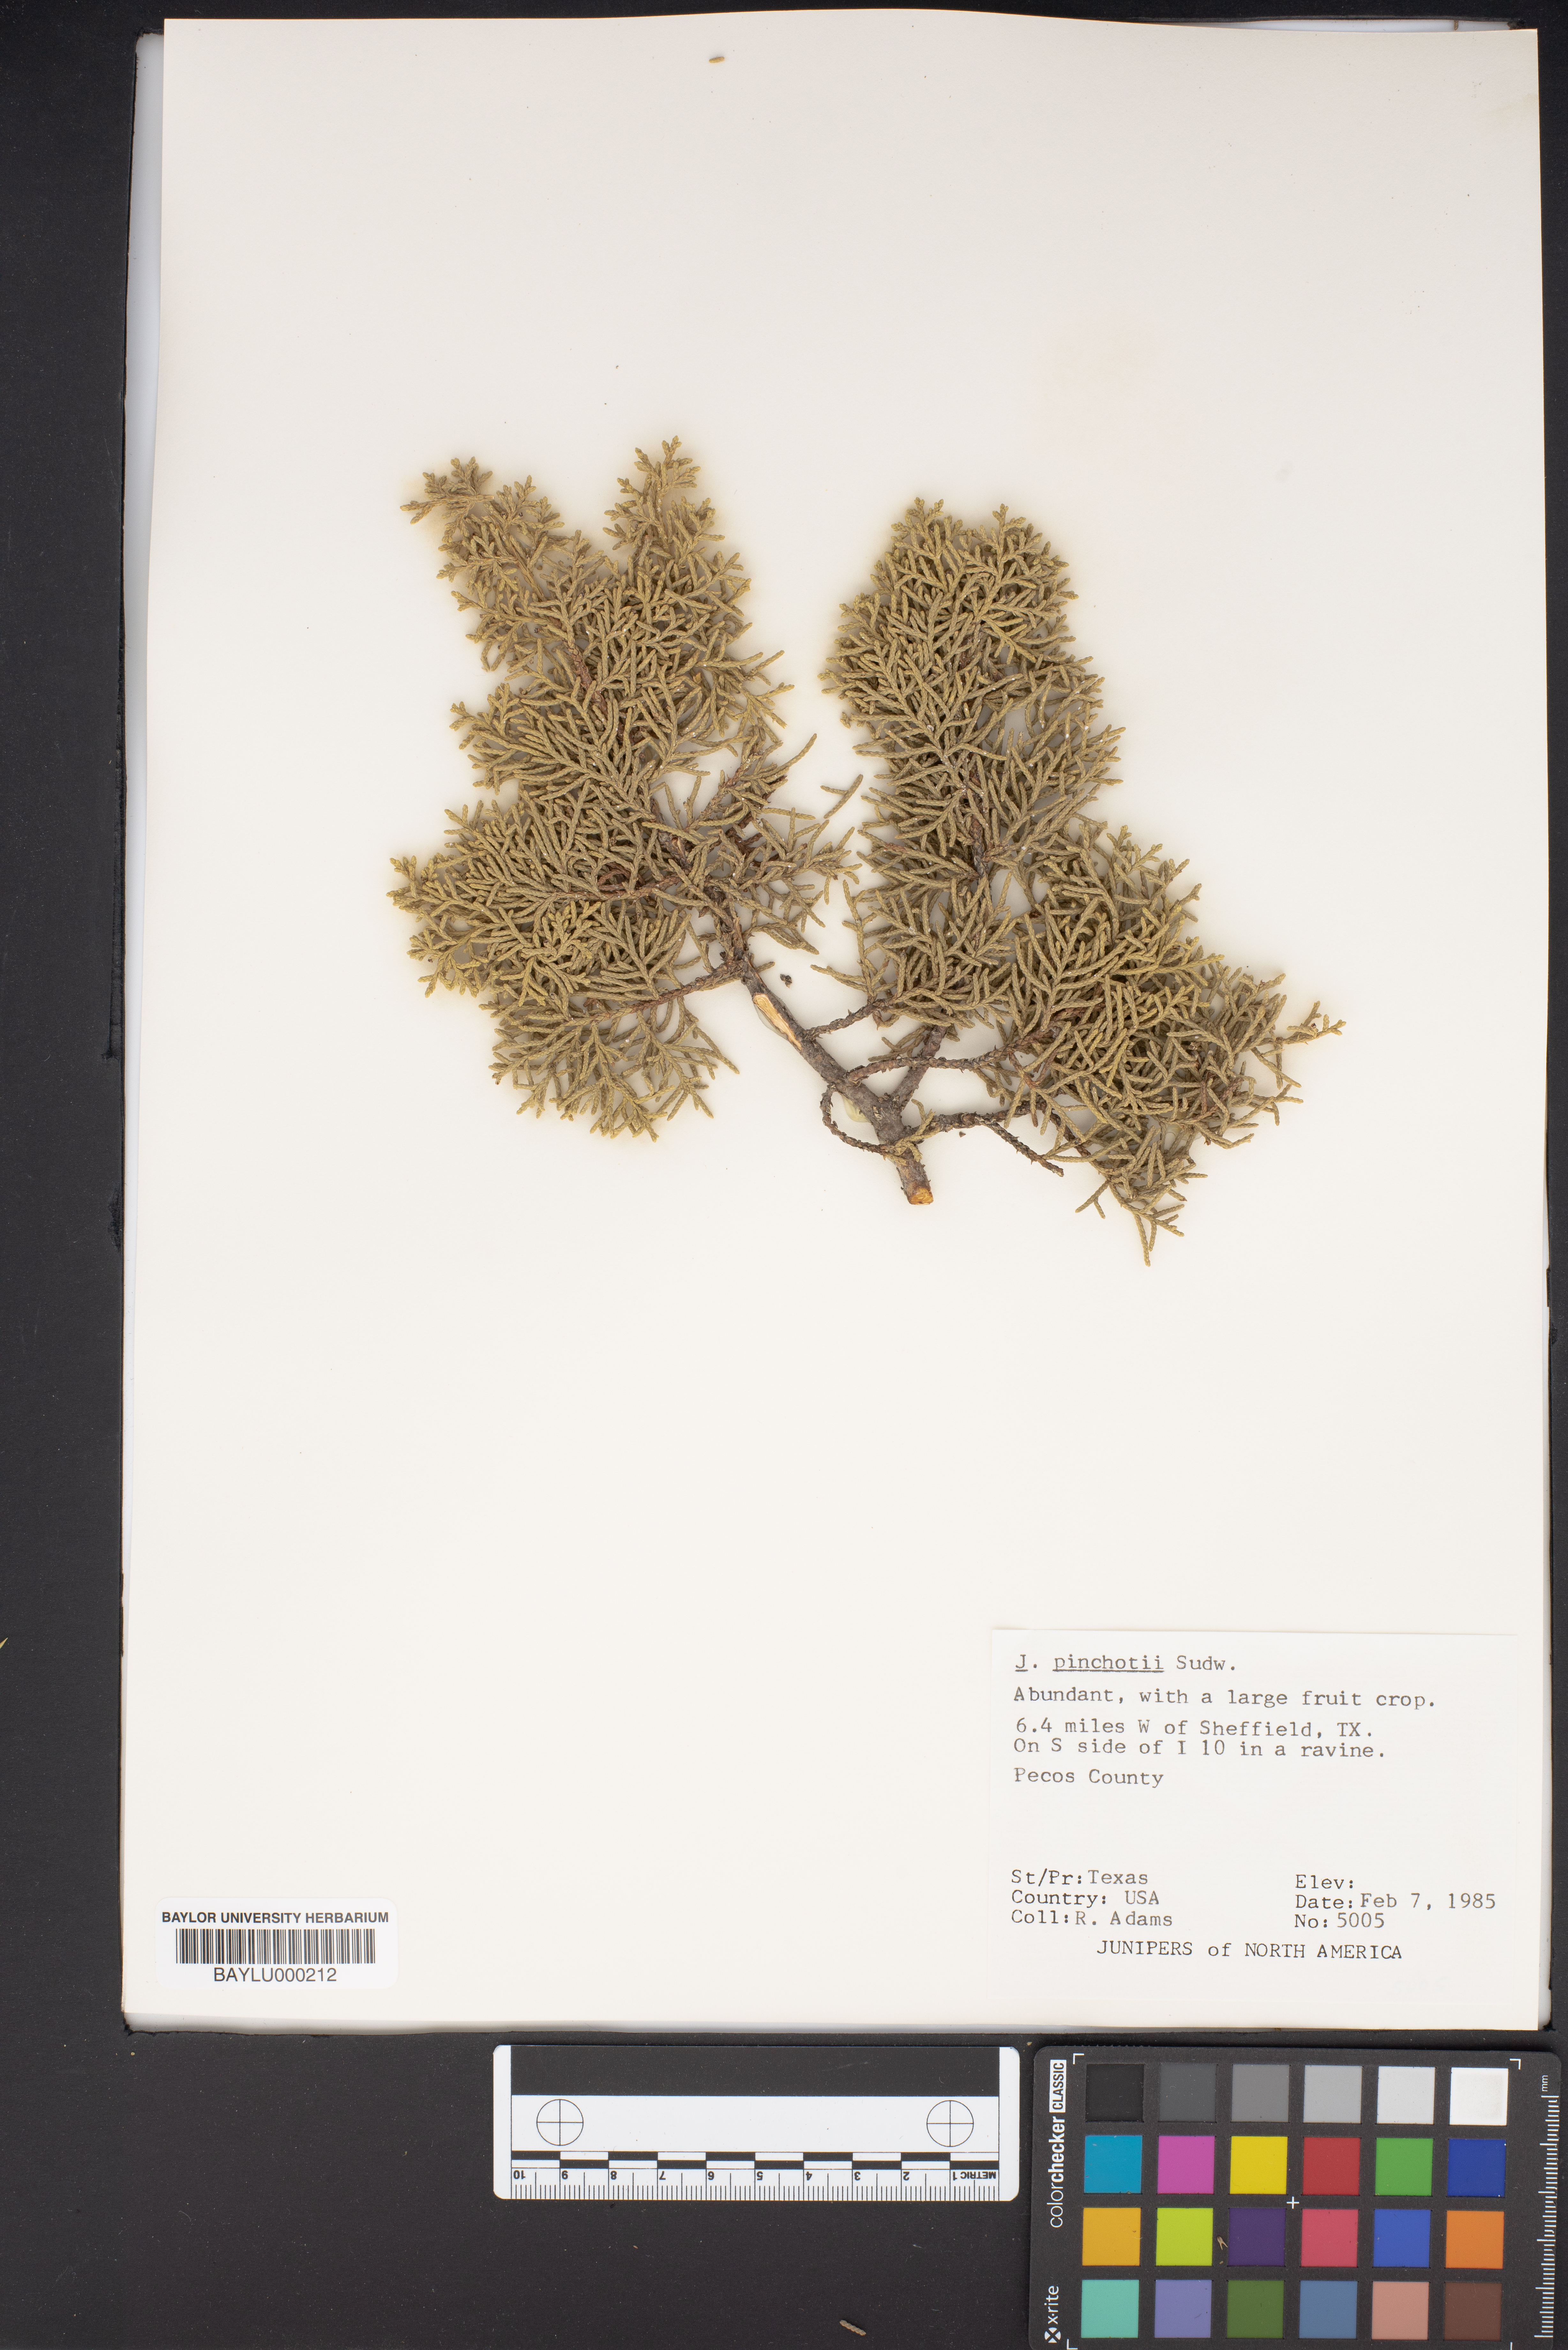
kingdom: Plantae
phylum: Tracheophyta
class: Pinopsida
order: Pinales
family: Cupressaceae
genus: Juniperus
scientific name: Juniperus pinchotii
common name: Pinchot juniper
